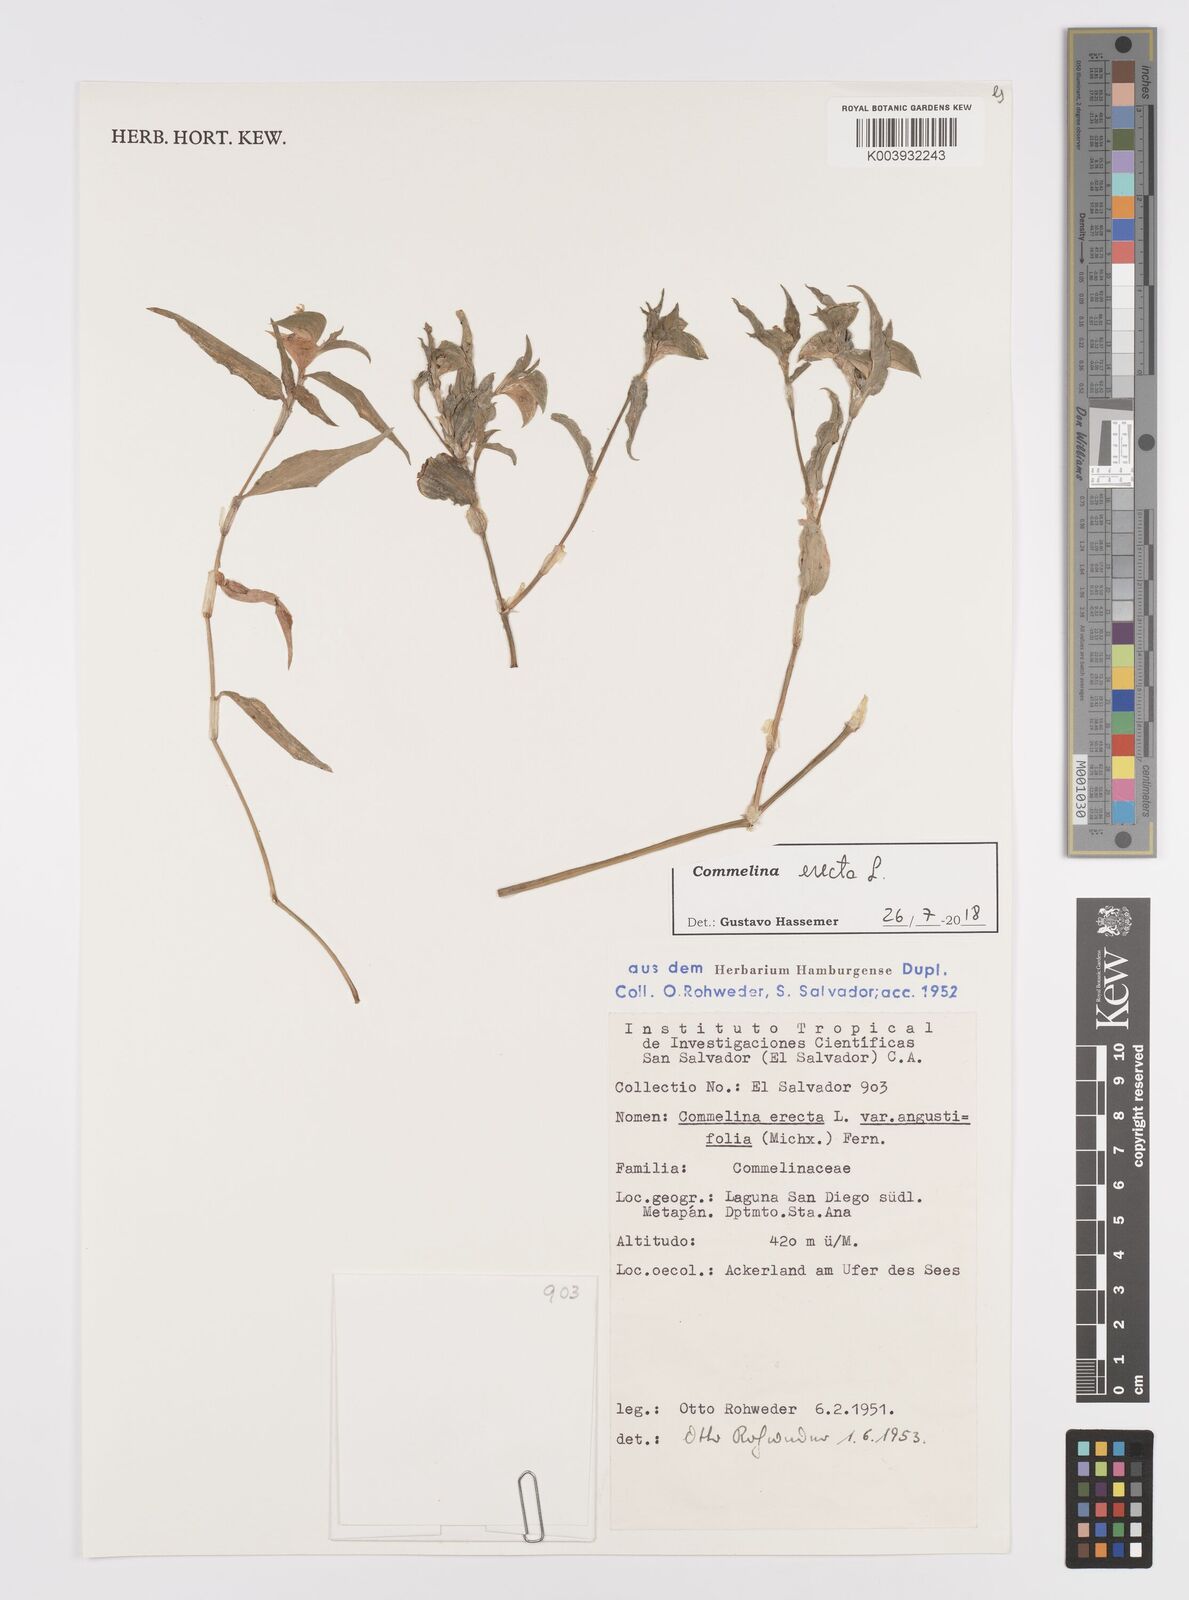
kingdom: Plantae
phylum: Tracheophyta
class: Liliopsida
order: Commelinales
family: Commelinaceae
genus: Commelina
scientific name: Commelina erecta
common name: Blousel blommetjie
